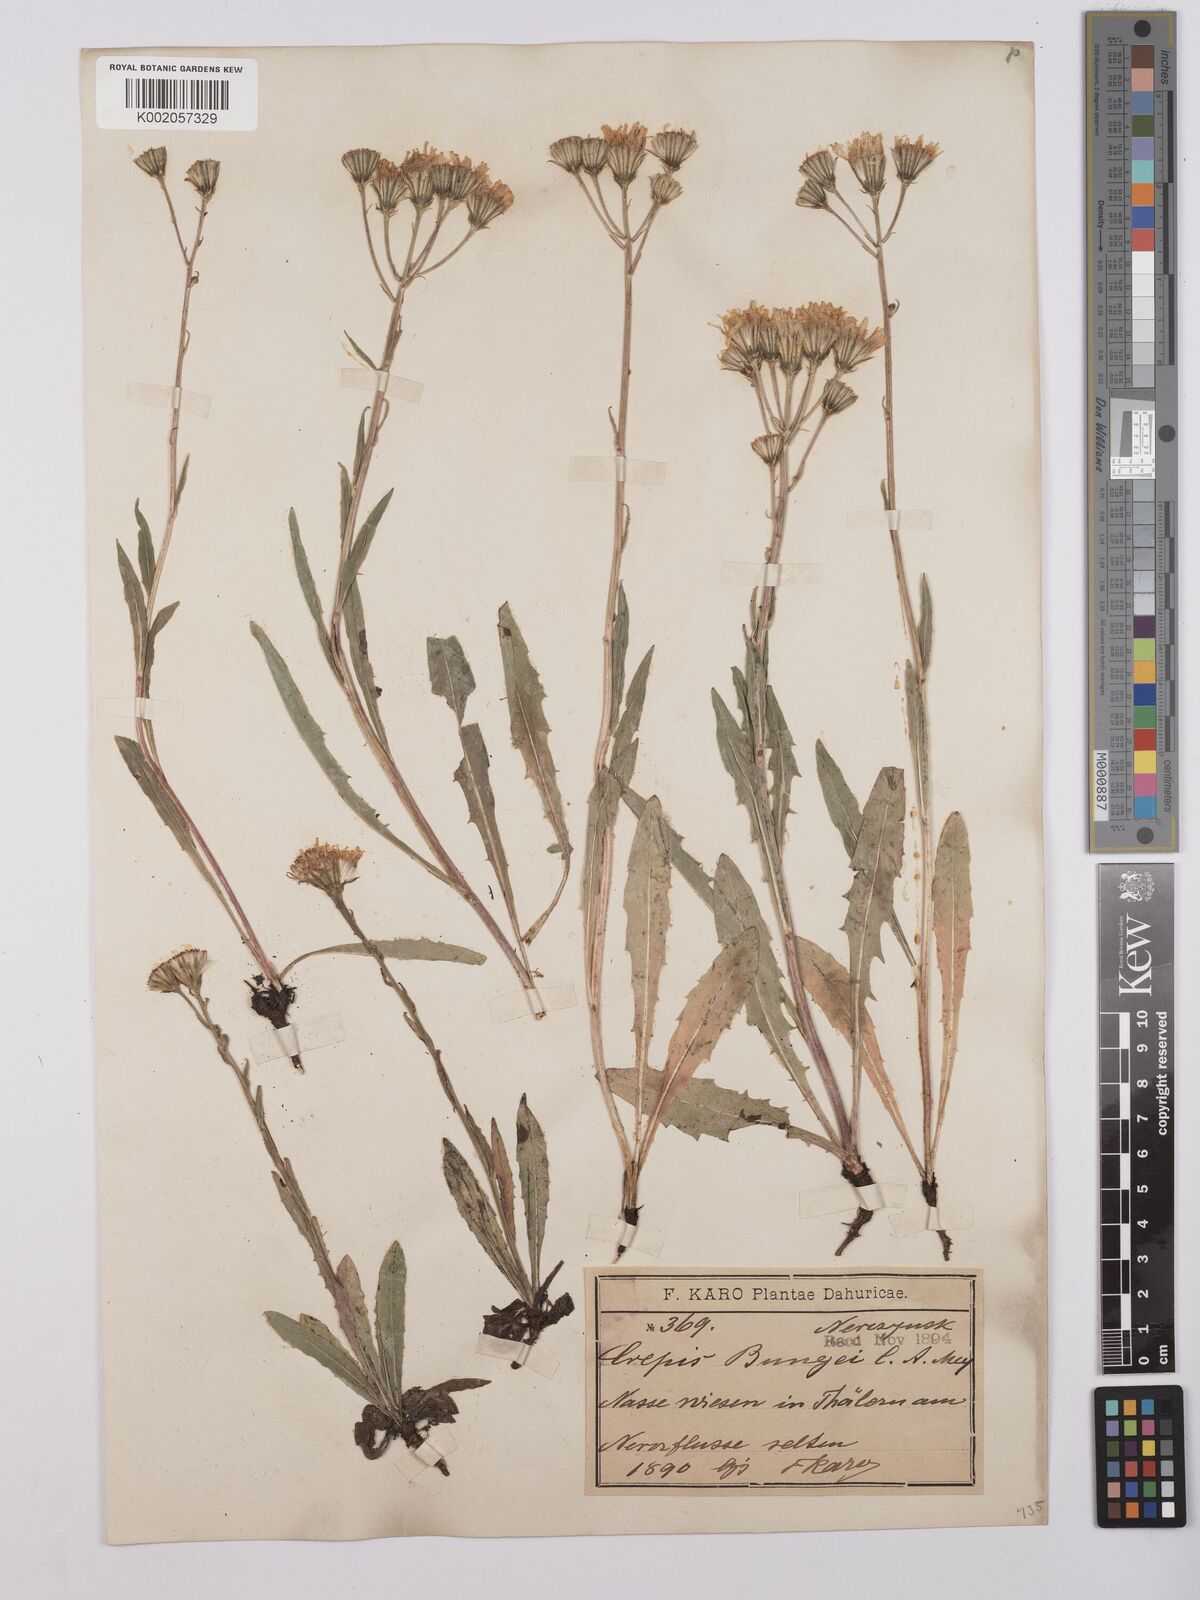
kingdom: Plantae
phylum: Tracheophyta
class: Magnoliopsida
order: Asterales
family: Asteraceae
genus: Crepis
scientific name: Crepis bungei
